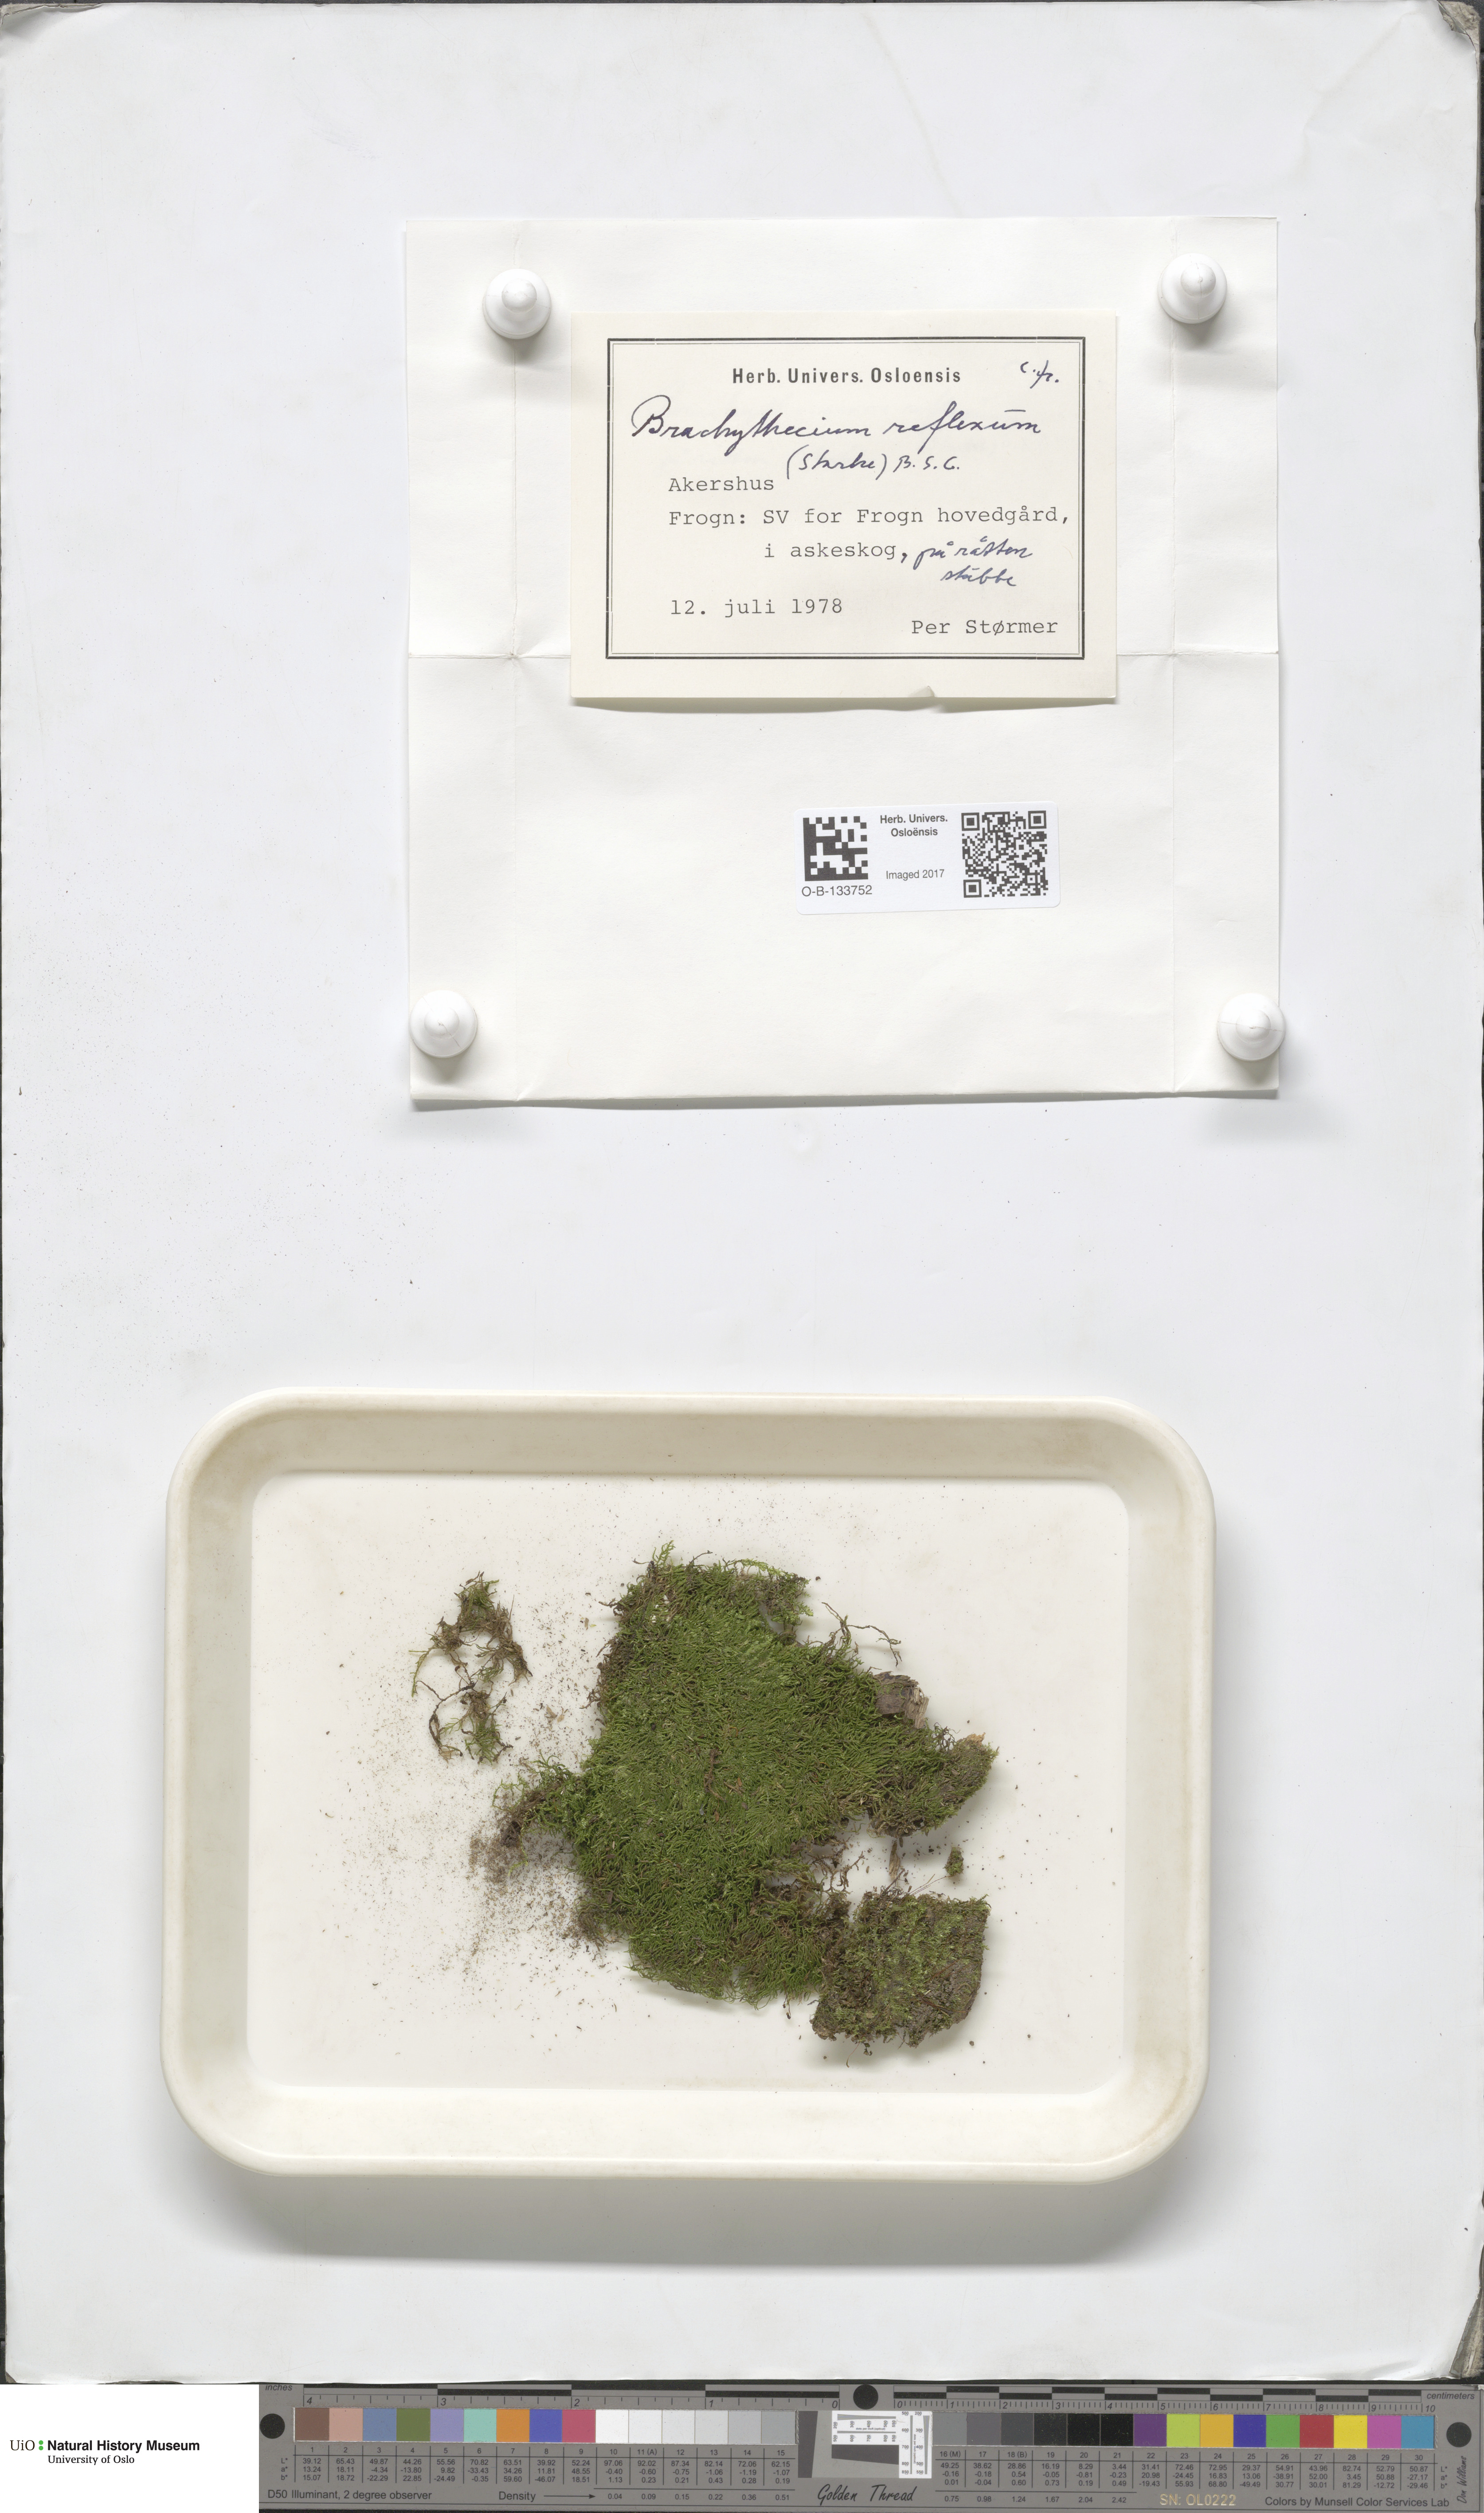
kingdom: Plantae
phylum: Bryophyta
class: Bryopsida
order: Hypnales
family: Brachytheciaceae
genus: Sciuro-hypnum
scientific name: Sciuro-hypnum reflexum
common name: Reflexed feather-moss
